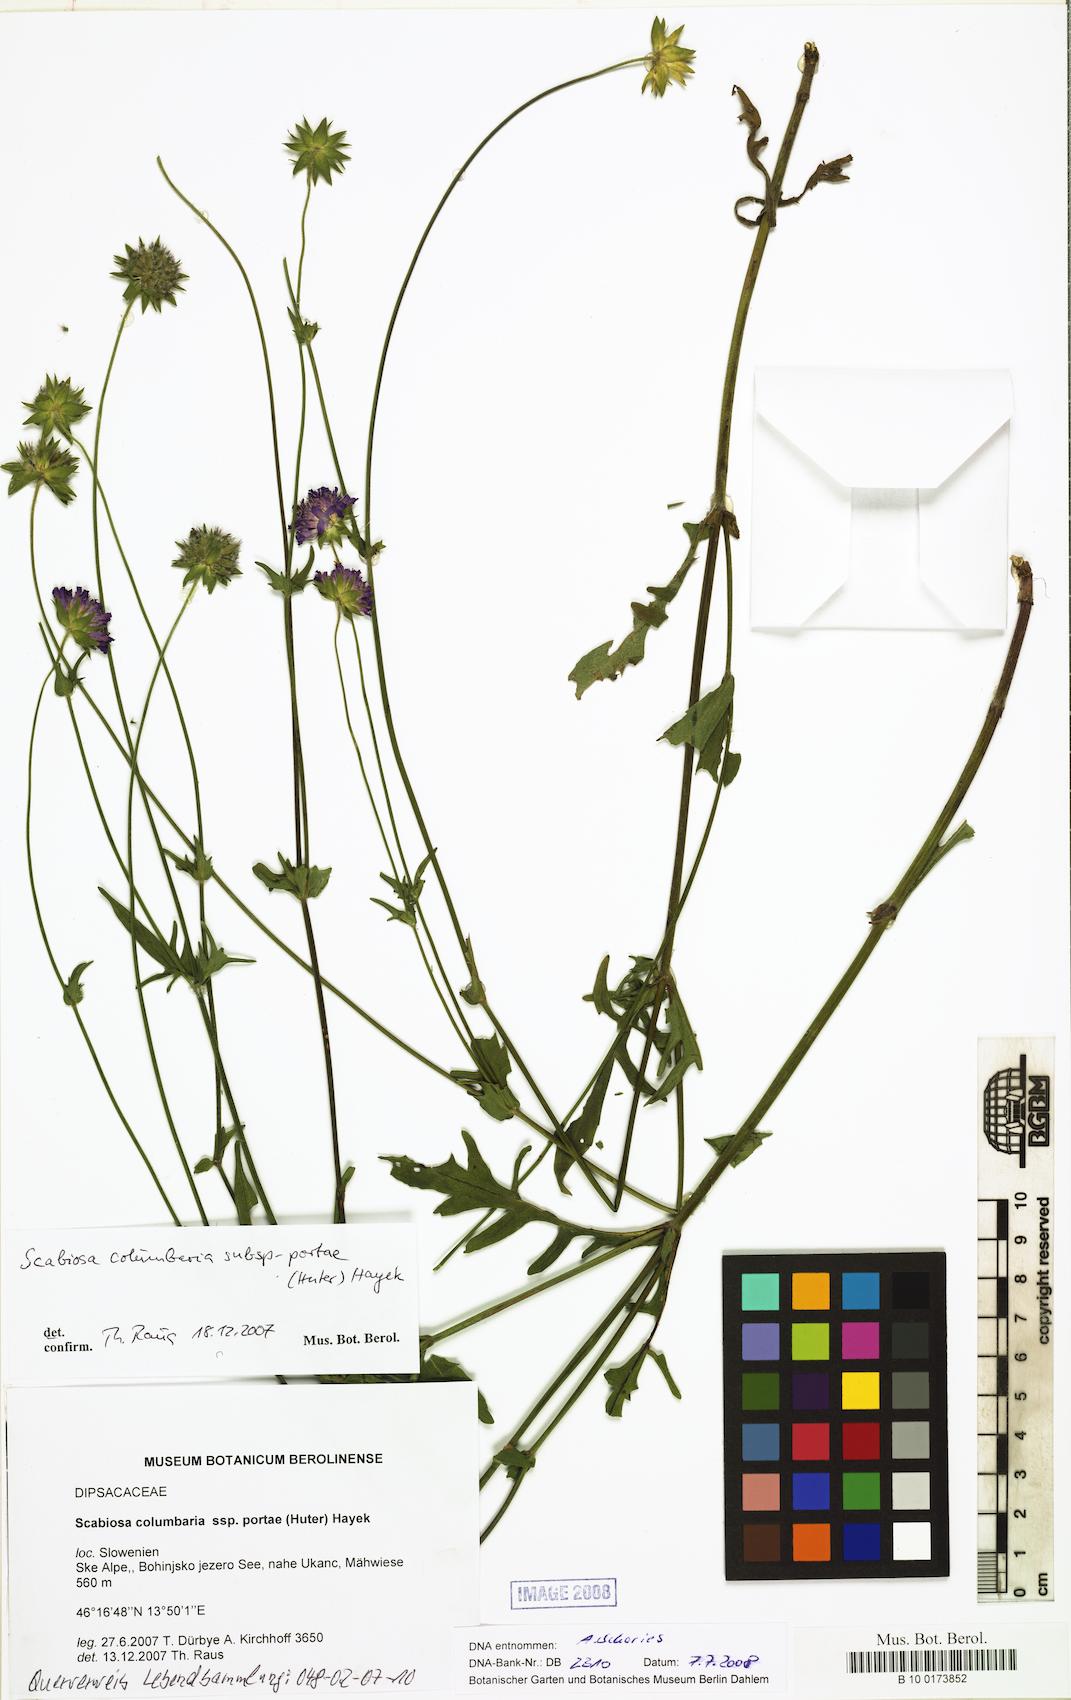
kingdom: Plantae
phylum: Tracheophyta
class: Magnoliopsida
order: Dipsacales
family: Caprifoliaceae
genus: Scabiosa
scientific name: Scabiosa taygetea
